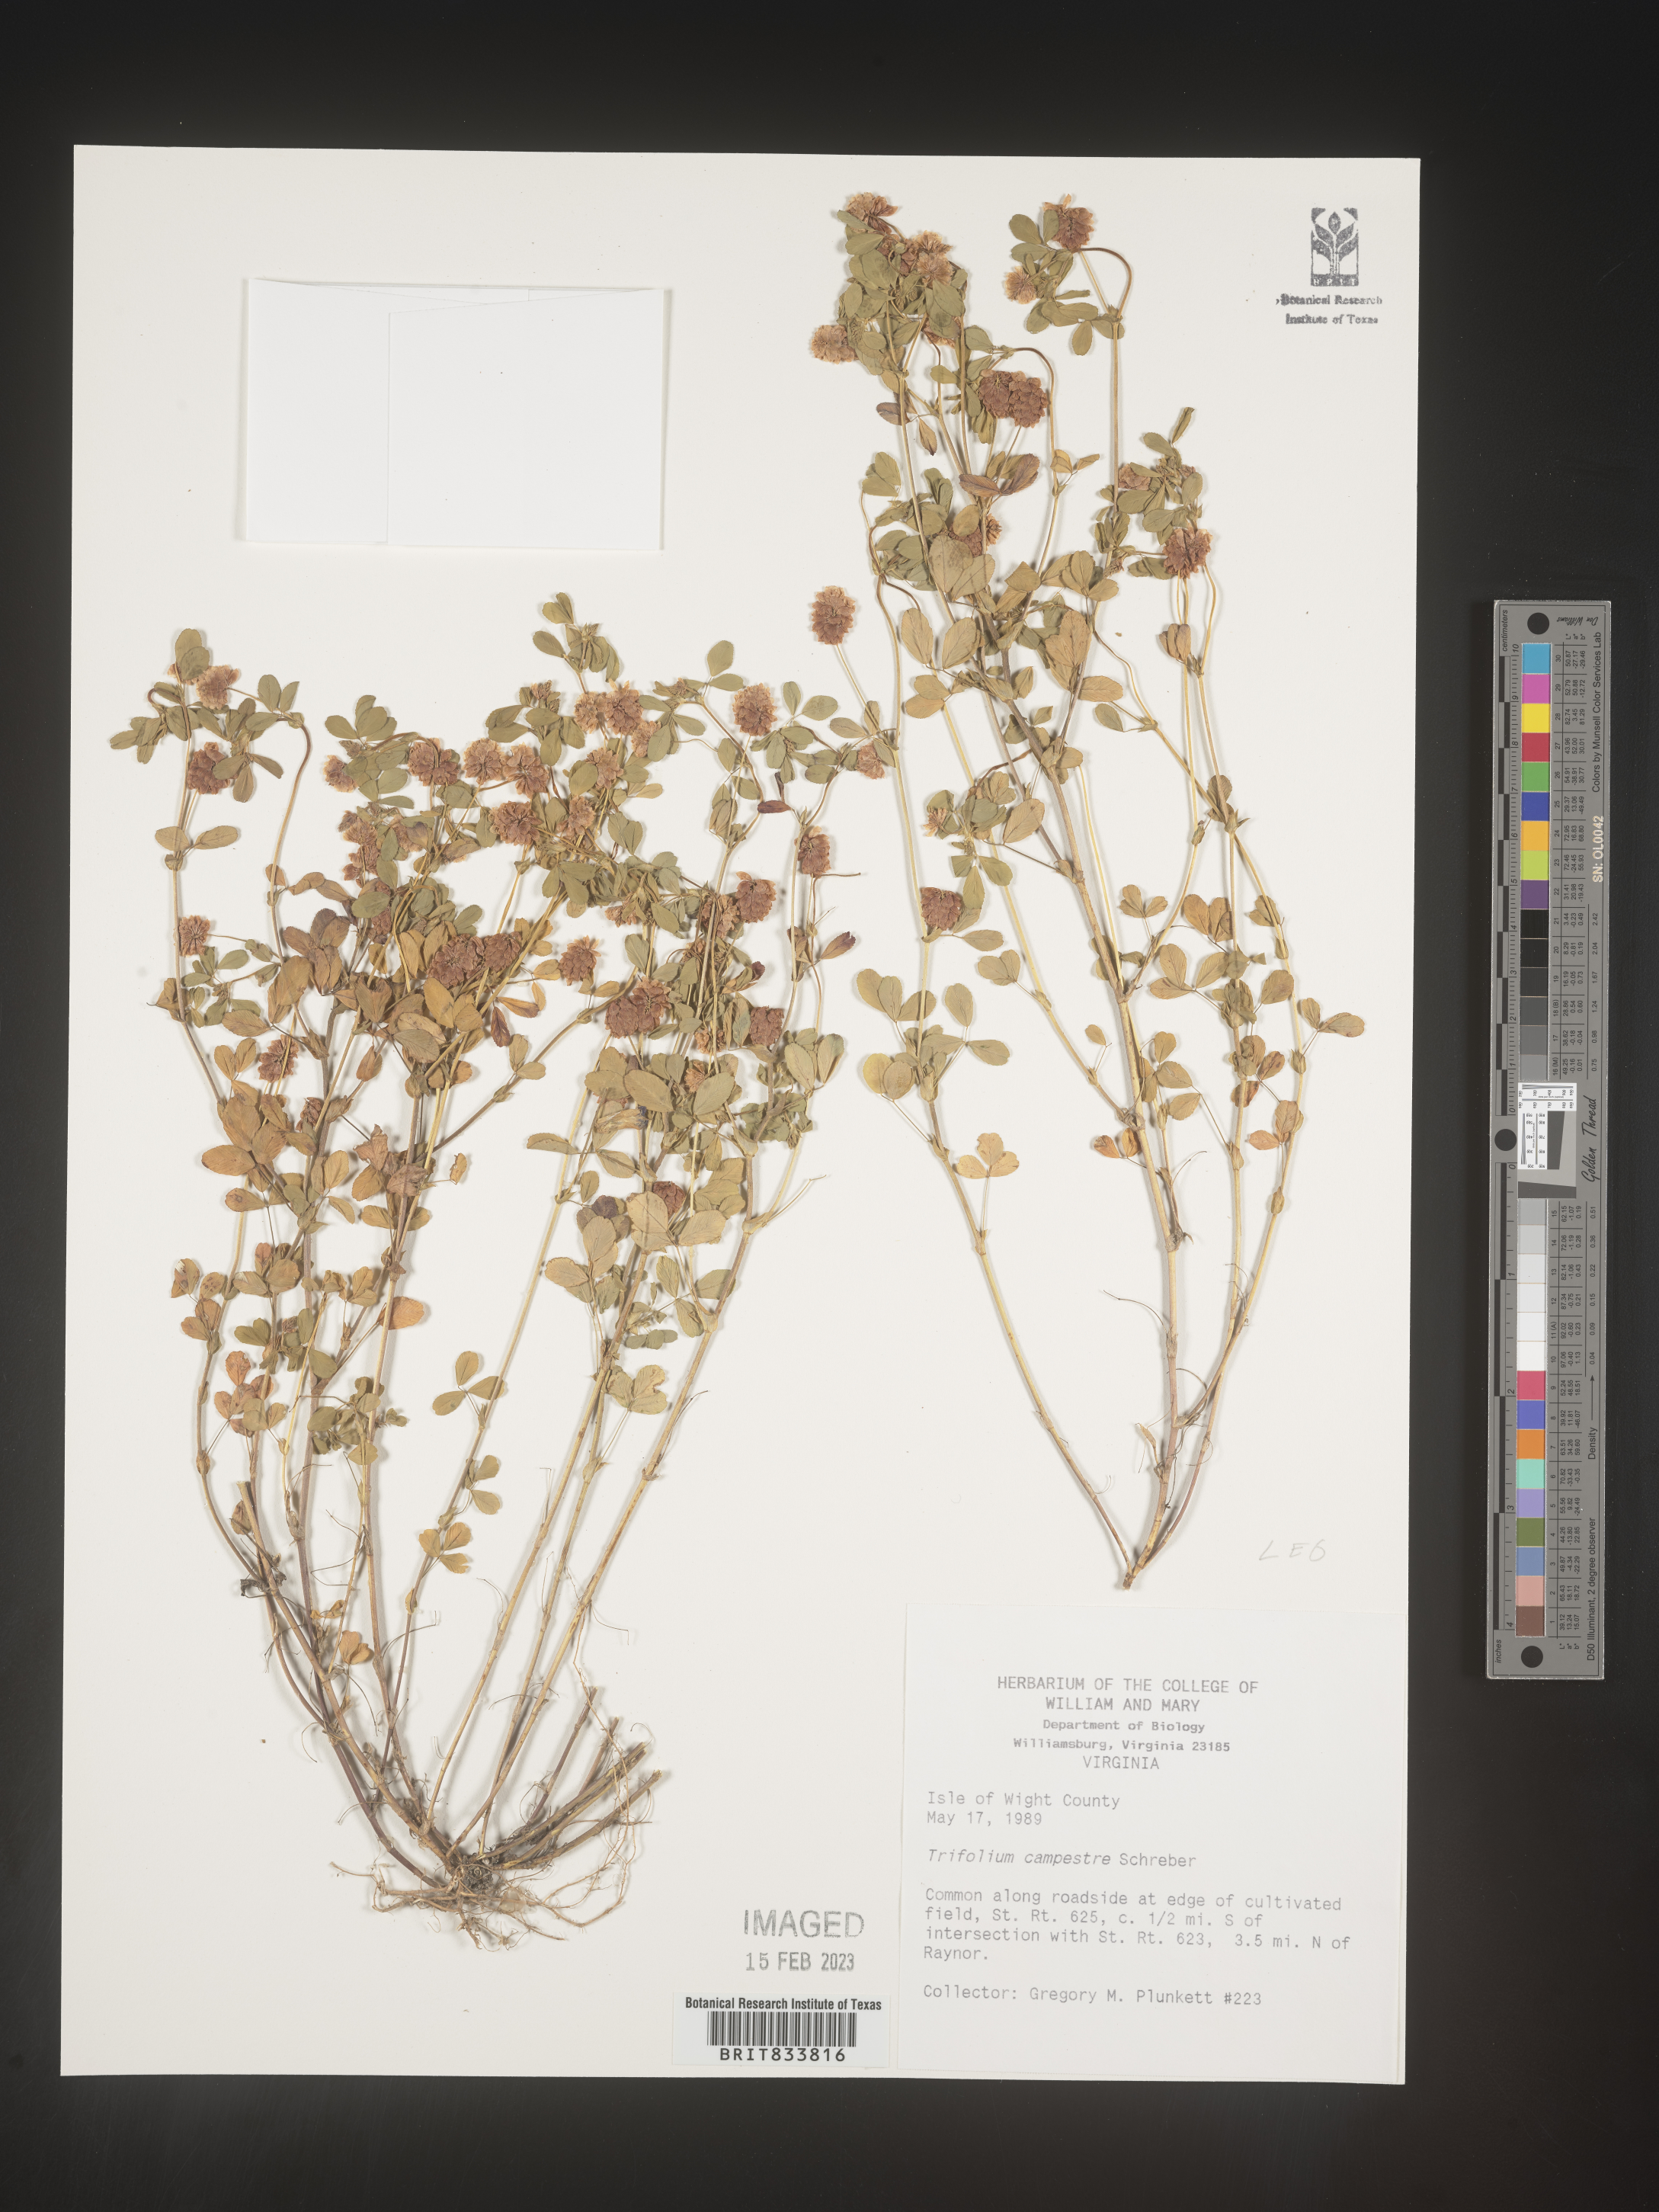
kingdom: Plantae
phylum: Tracheophyta
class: Magnoliopsida
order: Fabales
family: Fabaceae
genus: Trifolium
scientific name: Trifolium campestre
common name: Field clover
